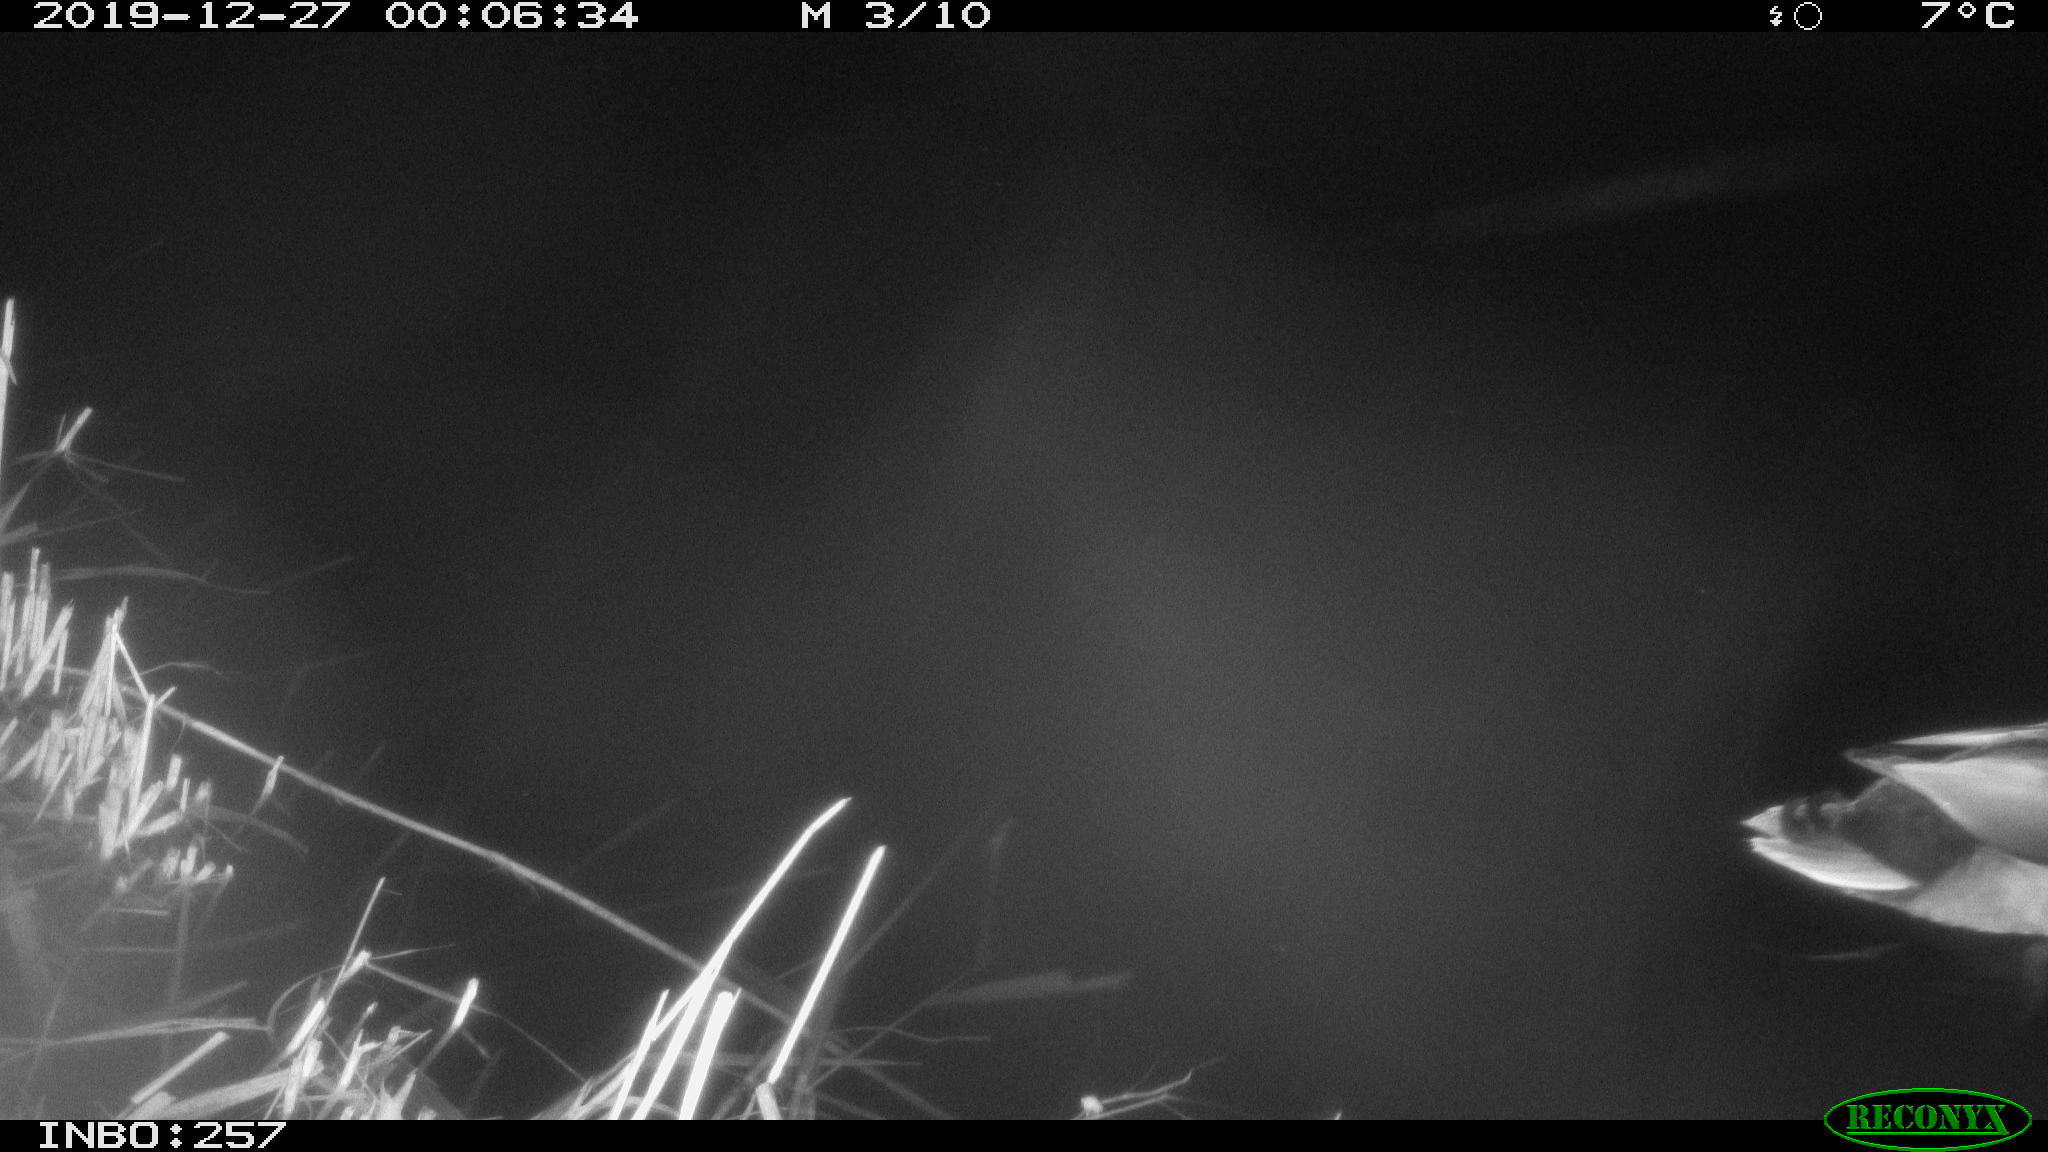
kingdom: Animalia
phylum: Chordata
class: Aves
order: Anseriformes
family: Anatidae
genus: Anas
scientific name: Anas platyrhynchos
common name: Mallard
